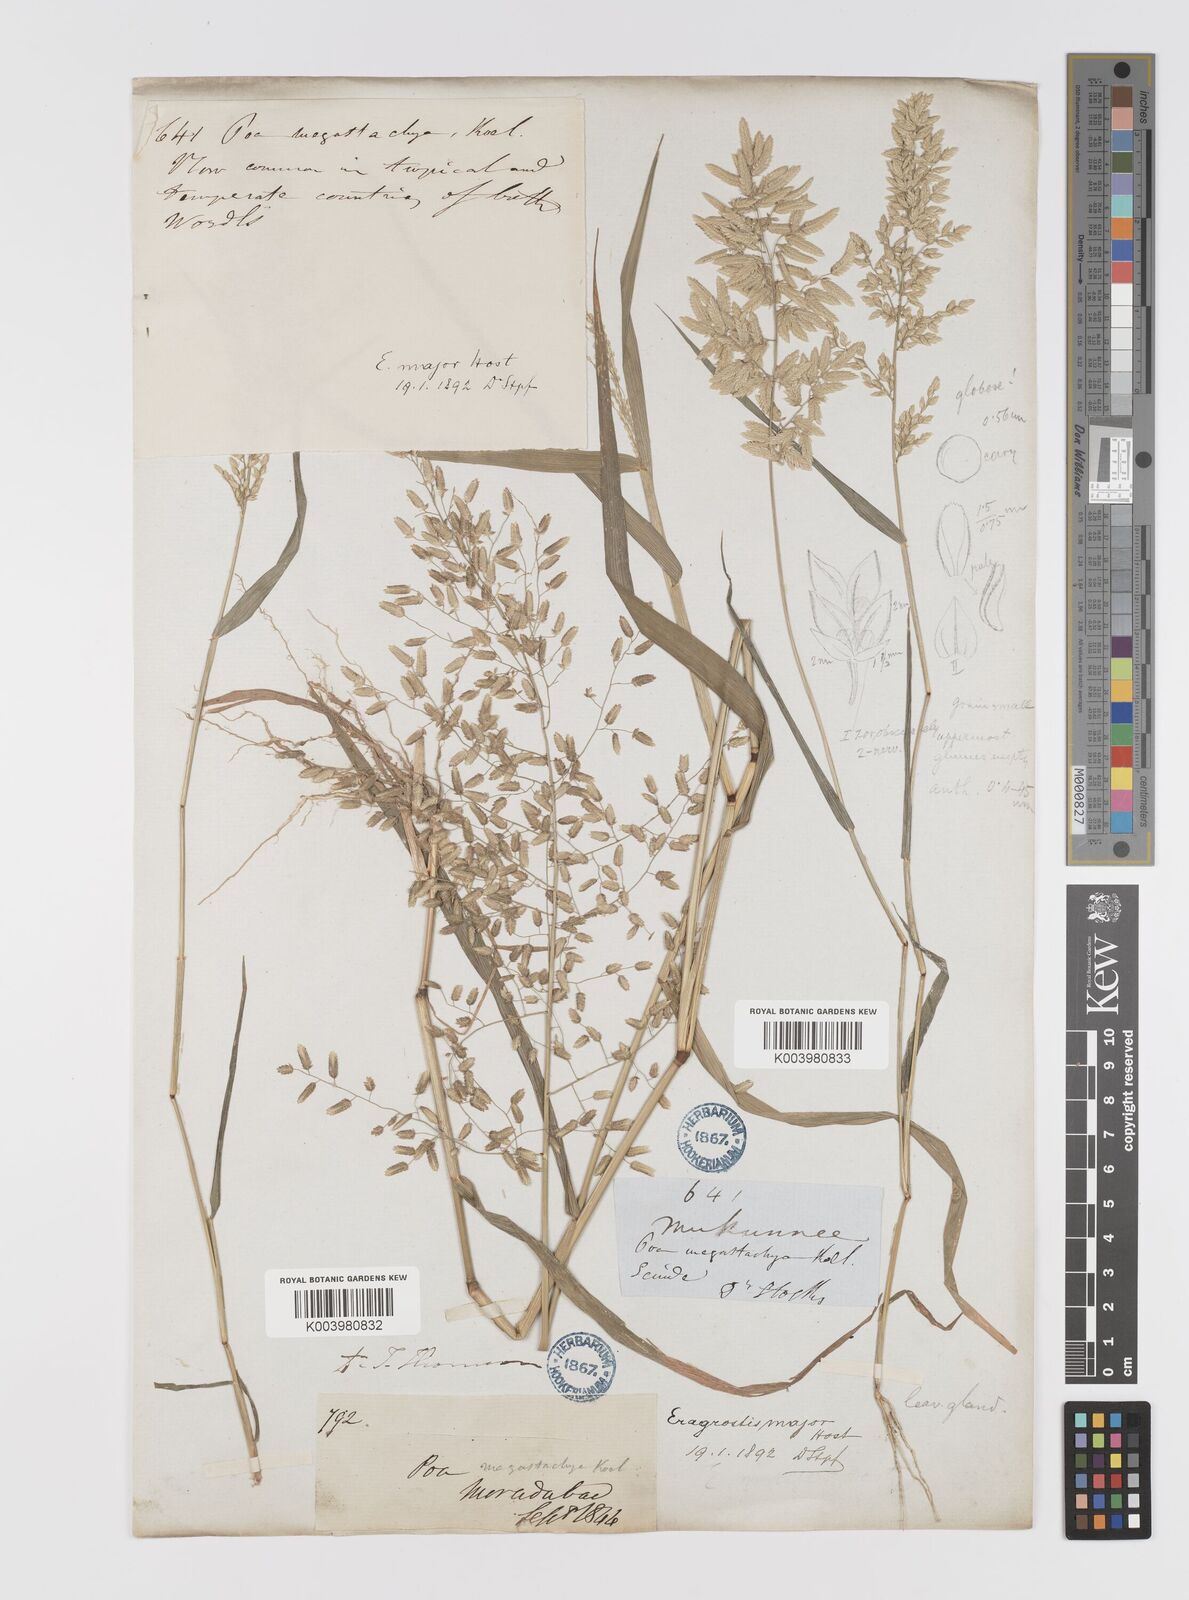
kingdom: Plantae
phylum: Tracheophyta
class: Liliopsida
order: Poales
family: Poaceae
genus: Eragrostis
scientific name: Eragrostis cilianensis
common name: Stinkgrass
